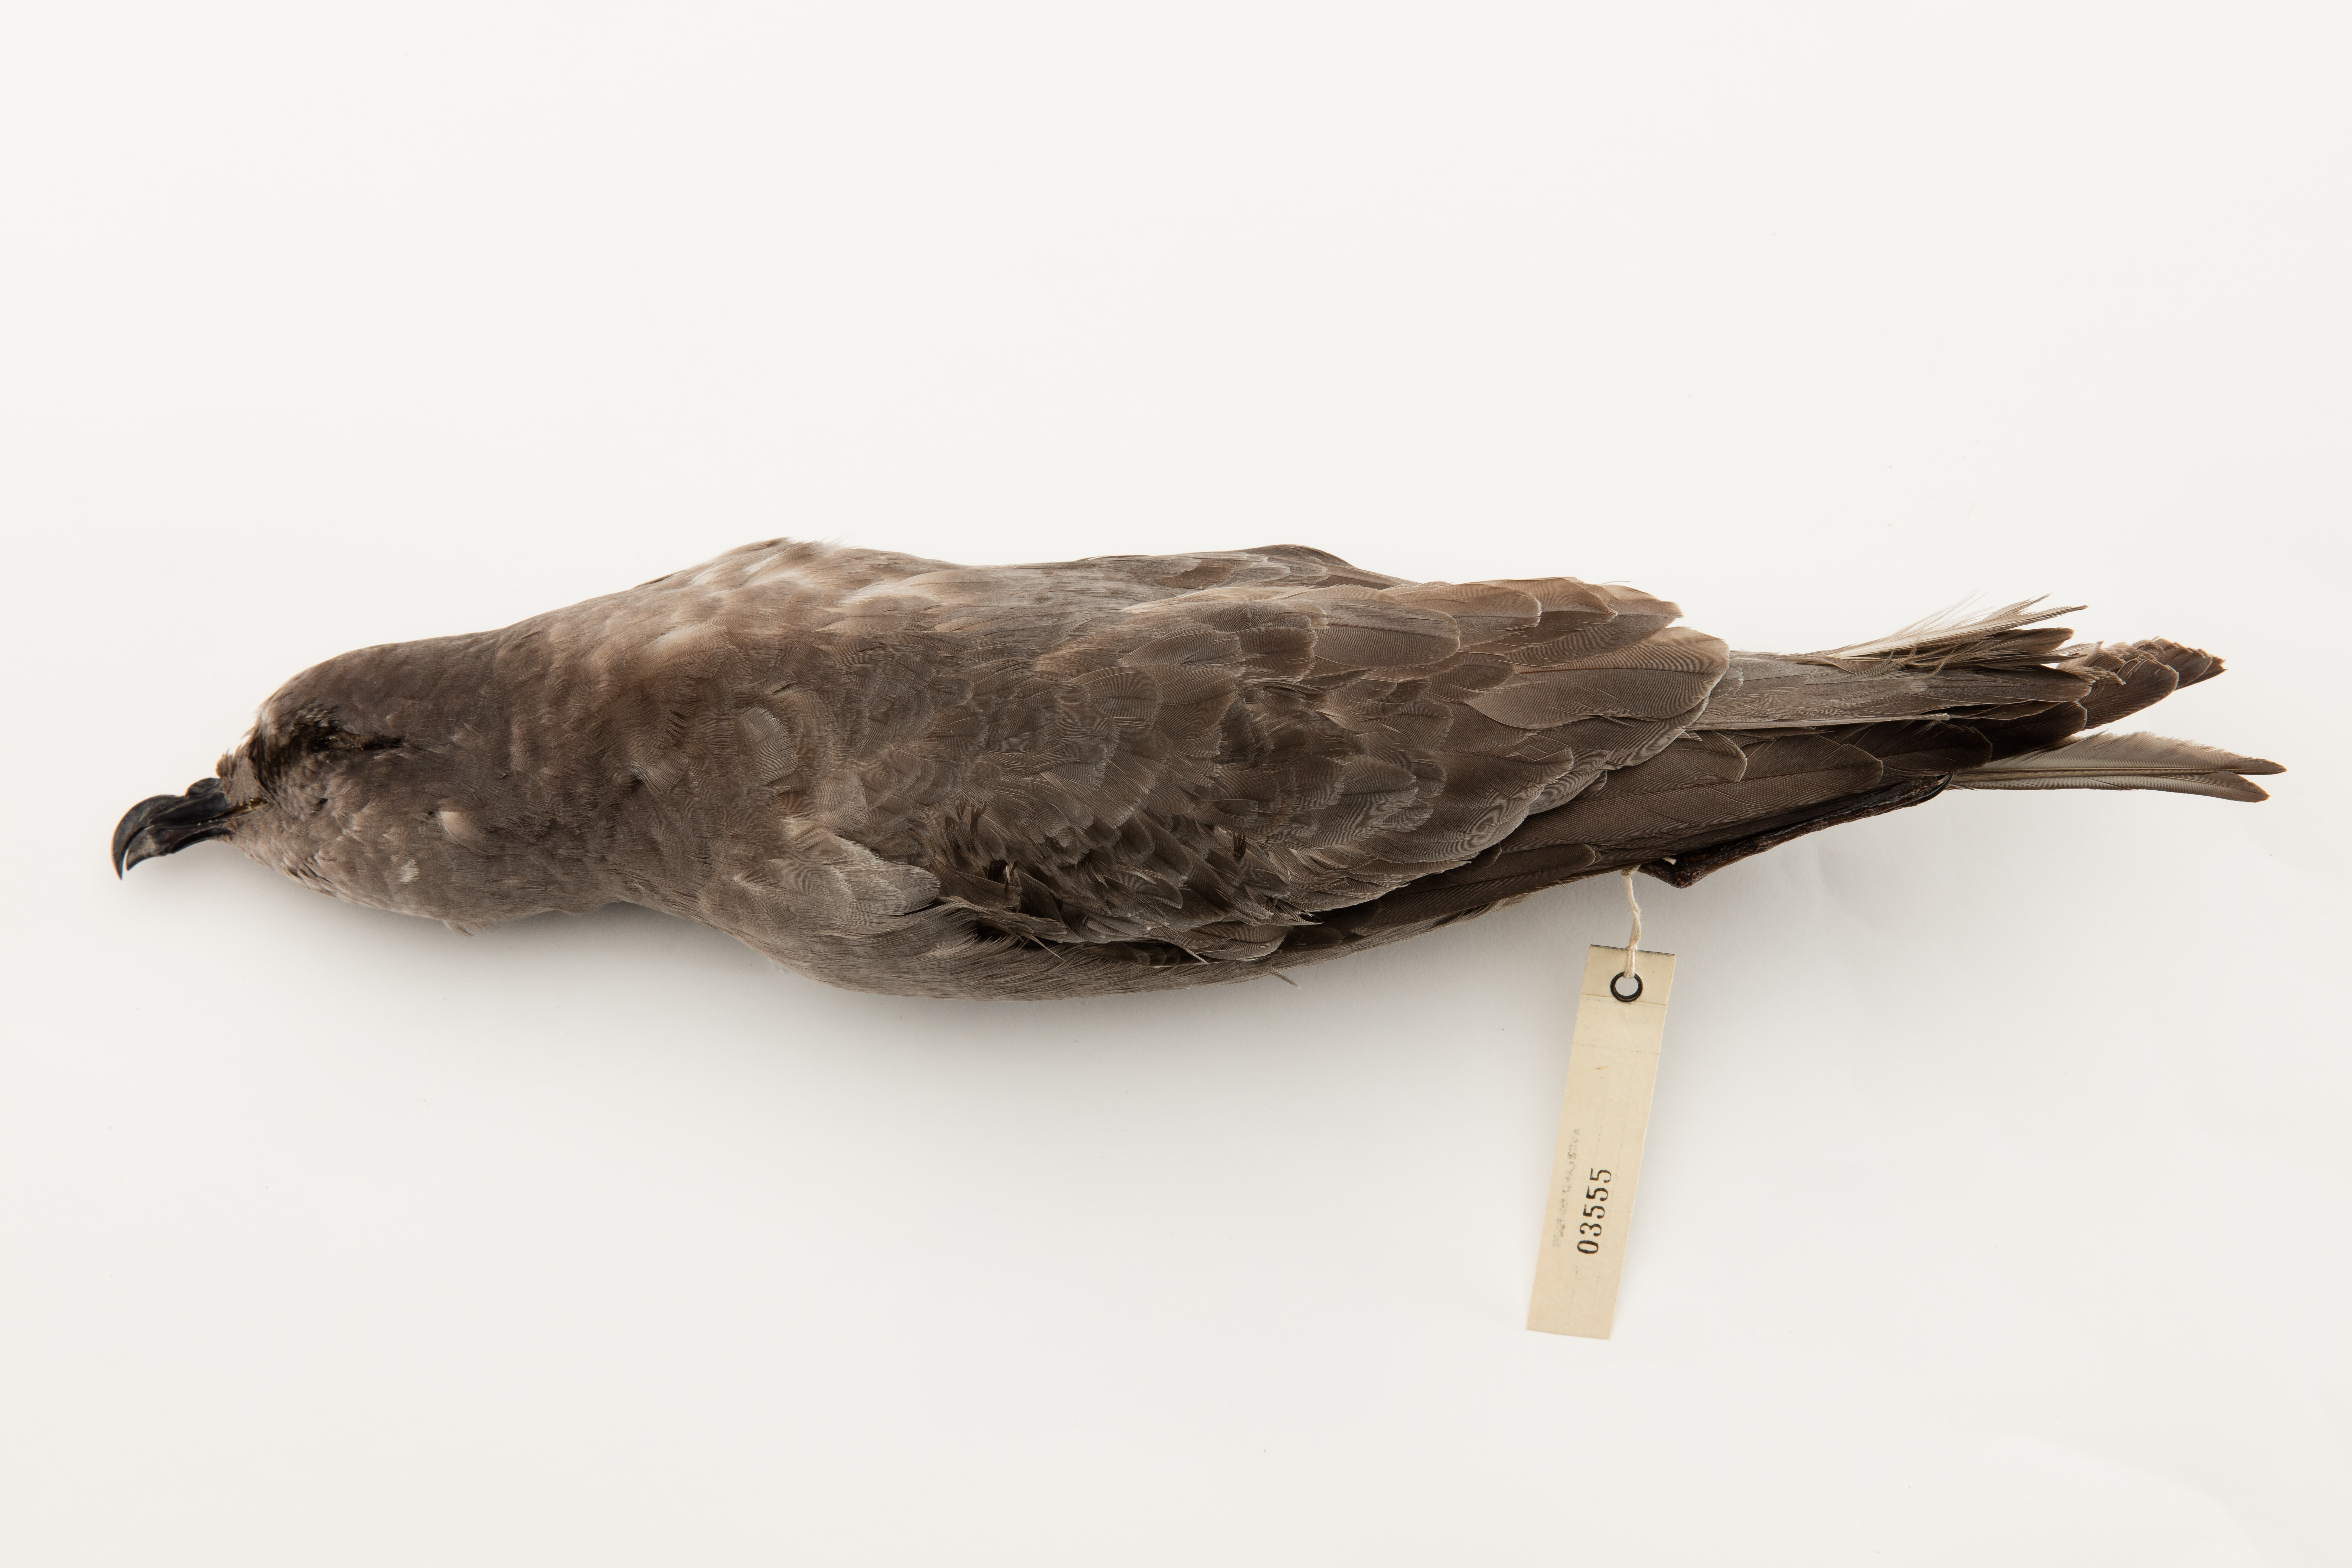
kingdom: Animalia
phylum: Chordata
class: Aves
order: Procellariiformes
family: Procellariidae
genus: Aphrodroma
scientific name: Aphrodroma brevirostris
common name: Kerguelen petrel
